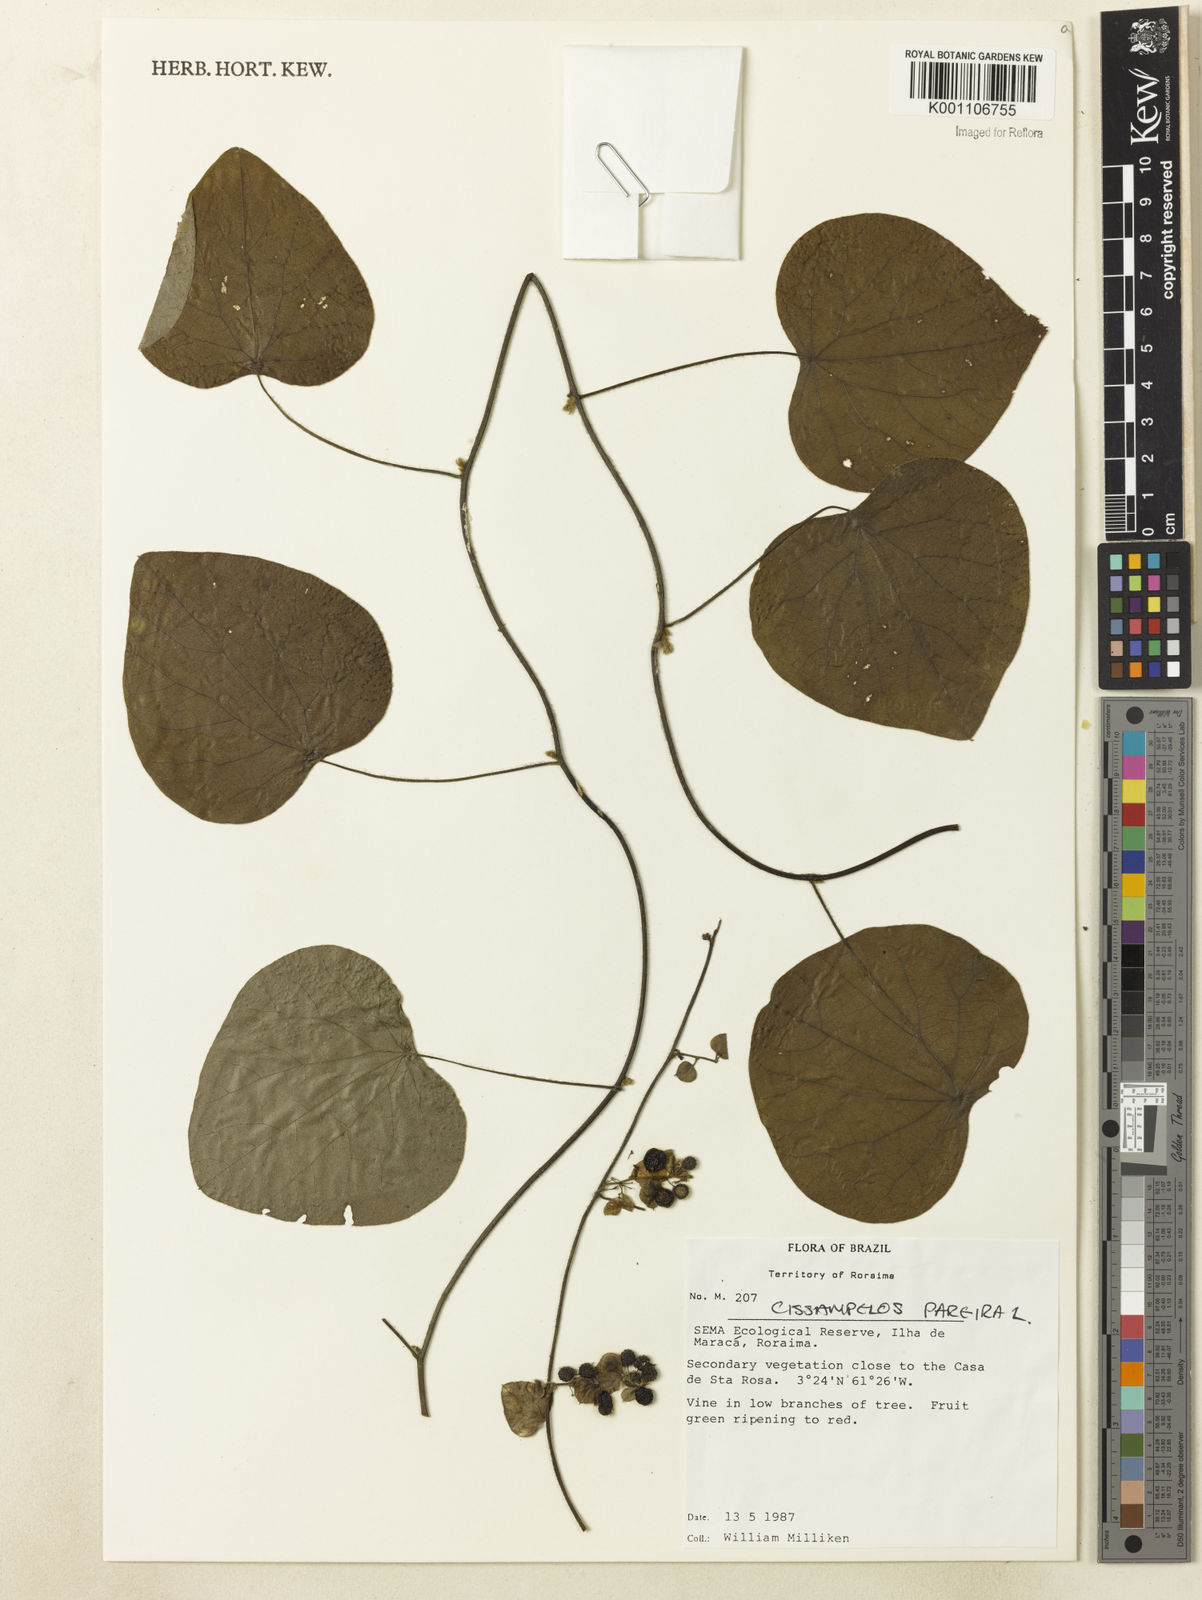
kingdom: Plantae
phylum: Tracheophyta
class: Magnoliopsida
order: Ranunculales
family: Menispermaceae
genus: Cissampelos
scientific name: Cissampelos pareira
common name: Velvetleaf
